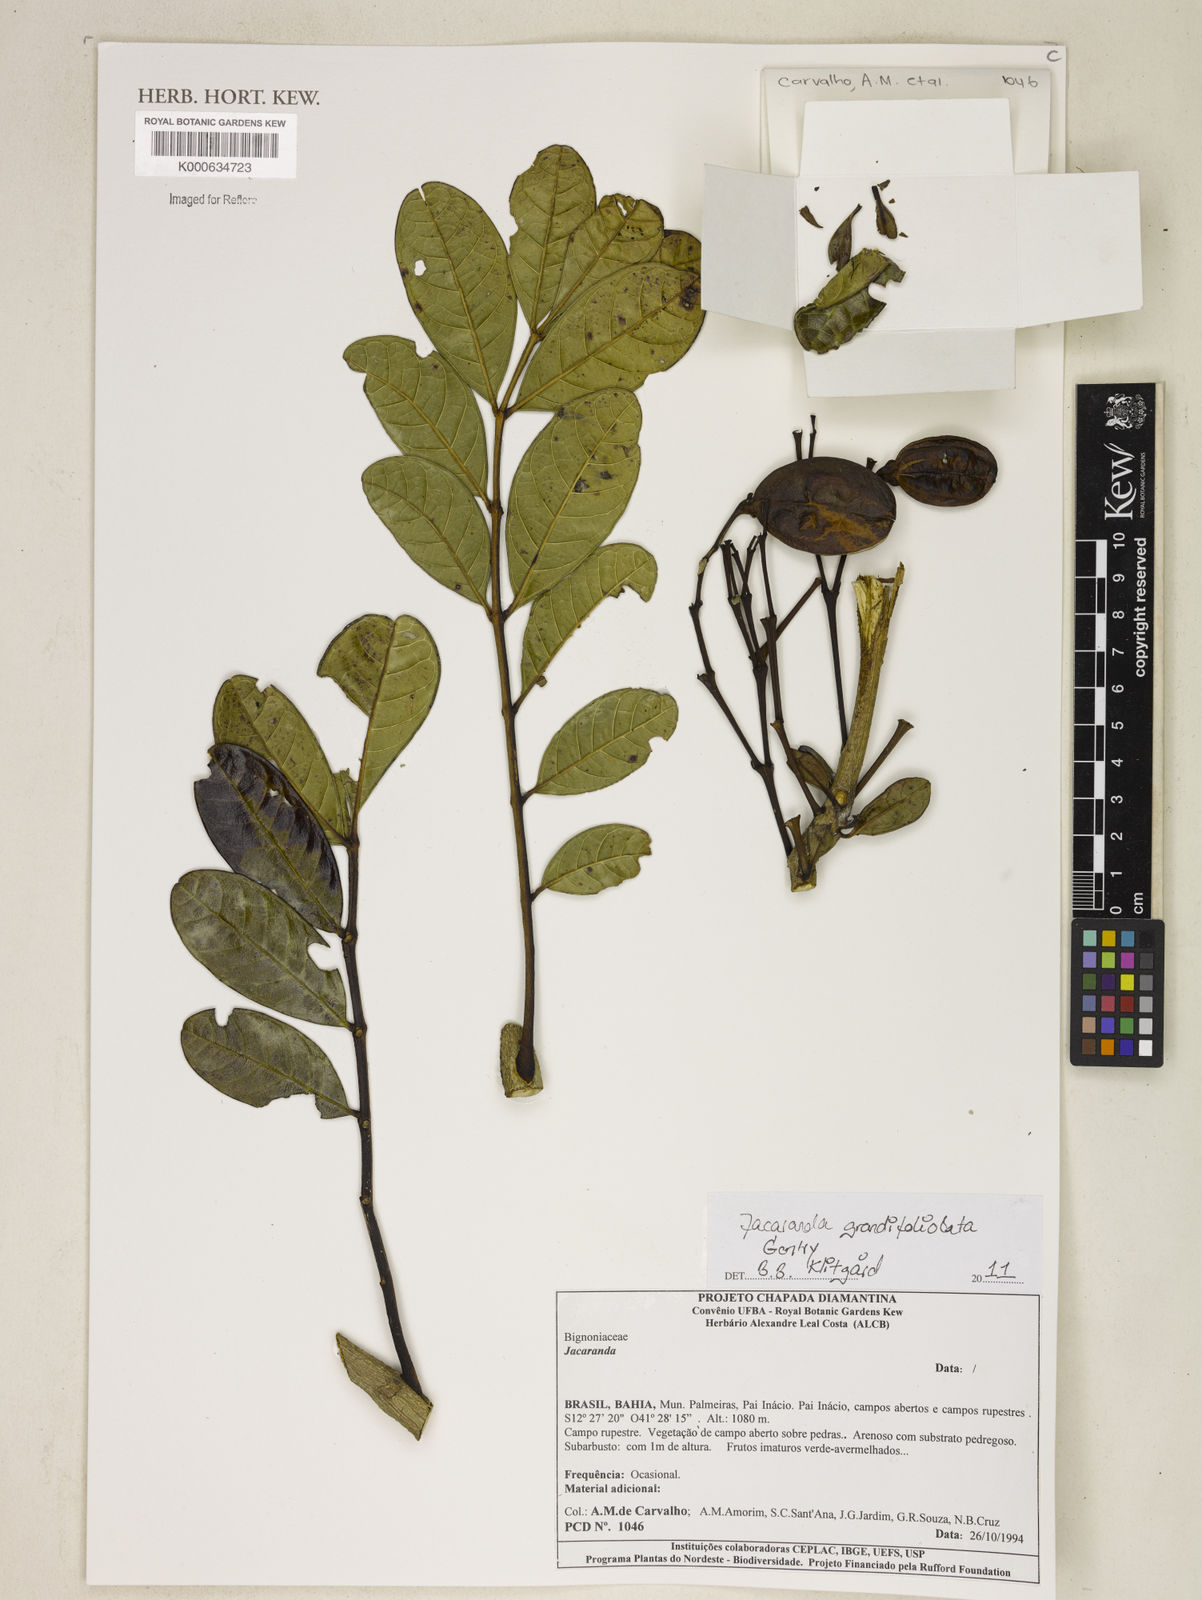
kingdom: Plantae
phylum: Tracheophyta
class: Magnoliopsida
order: Lamiales
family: Bignoniaceae
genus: Jacaranda
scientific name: Jacaranda grandifoliolata
